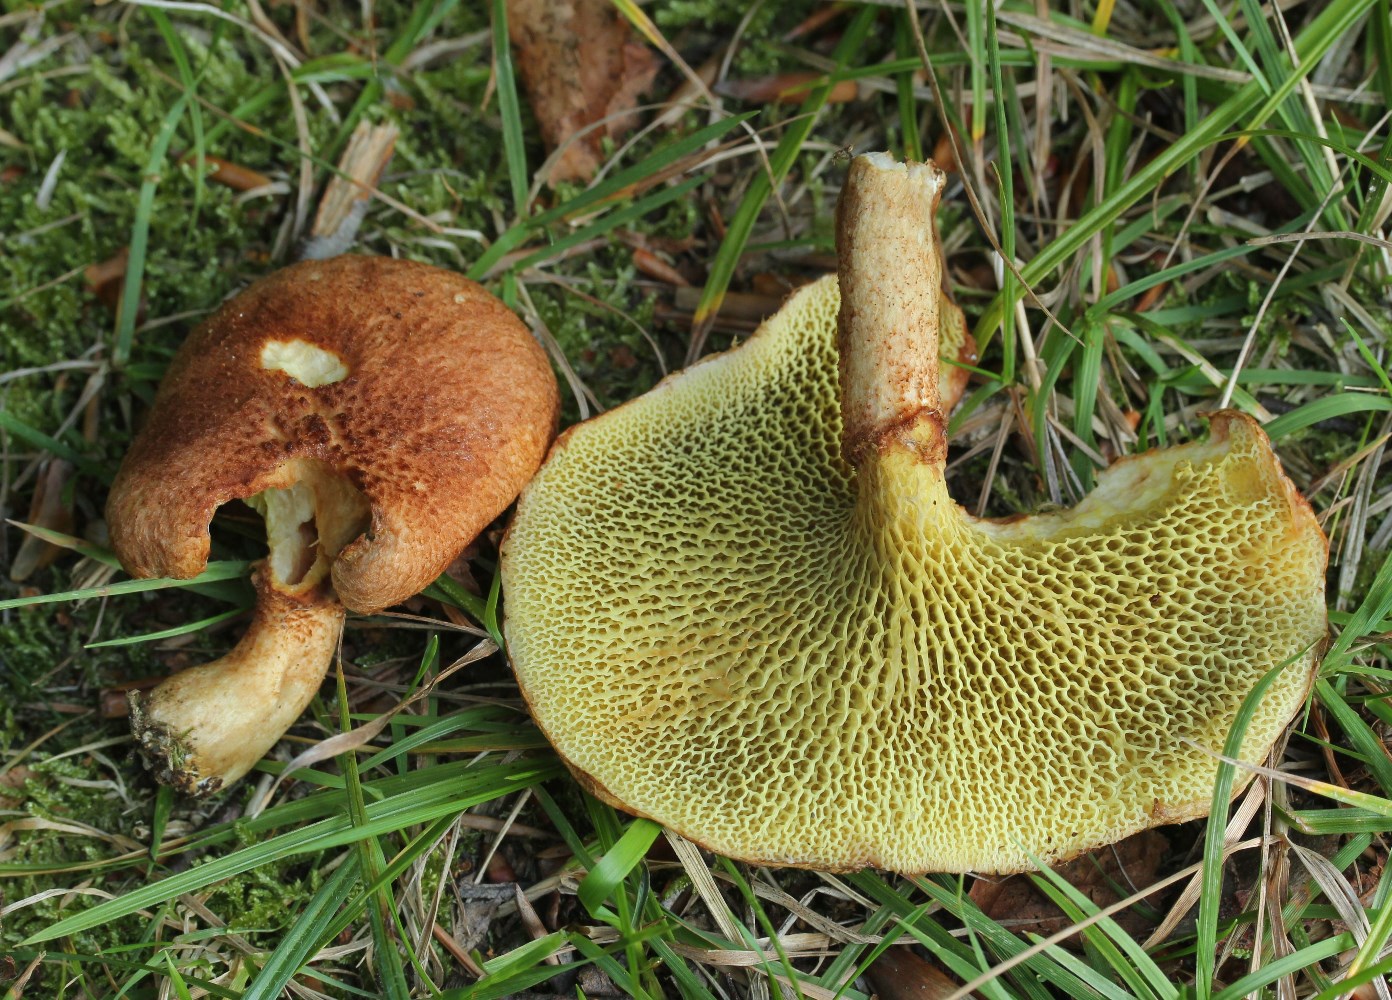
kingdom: Fungi
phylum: Basidiomycota
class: Agaricomycetes
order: Boletales
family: Suillaceae
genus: Suillus
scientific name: Suillus cavipes
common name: hulstokket slimrørhat
